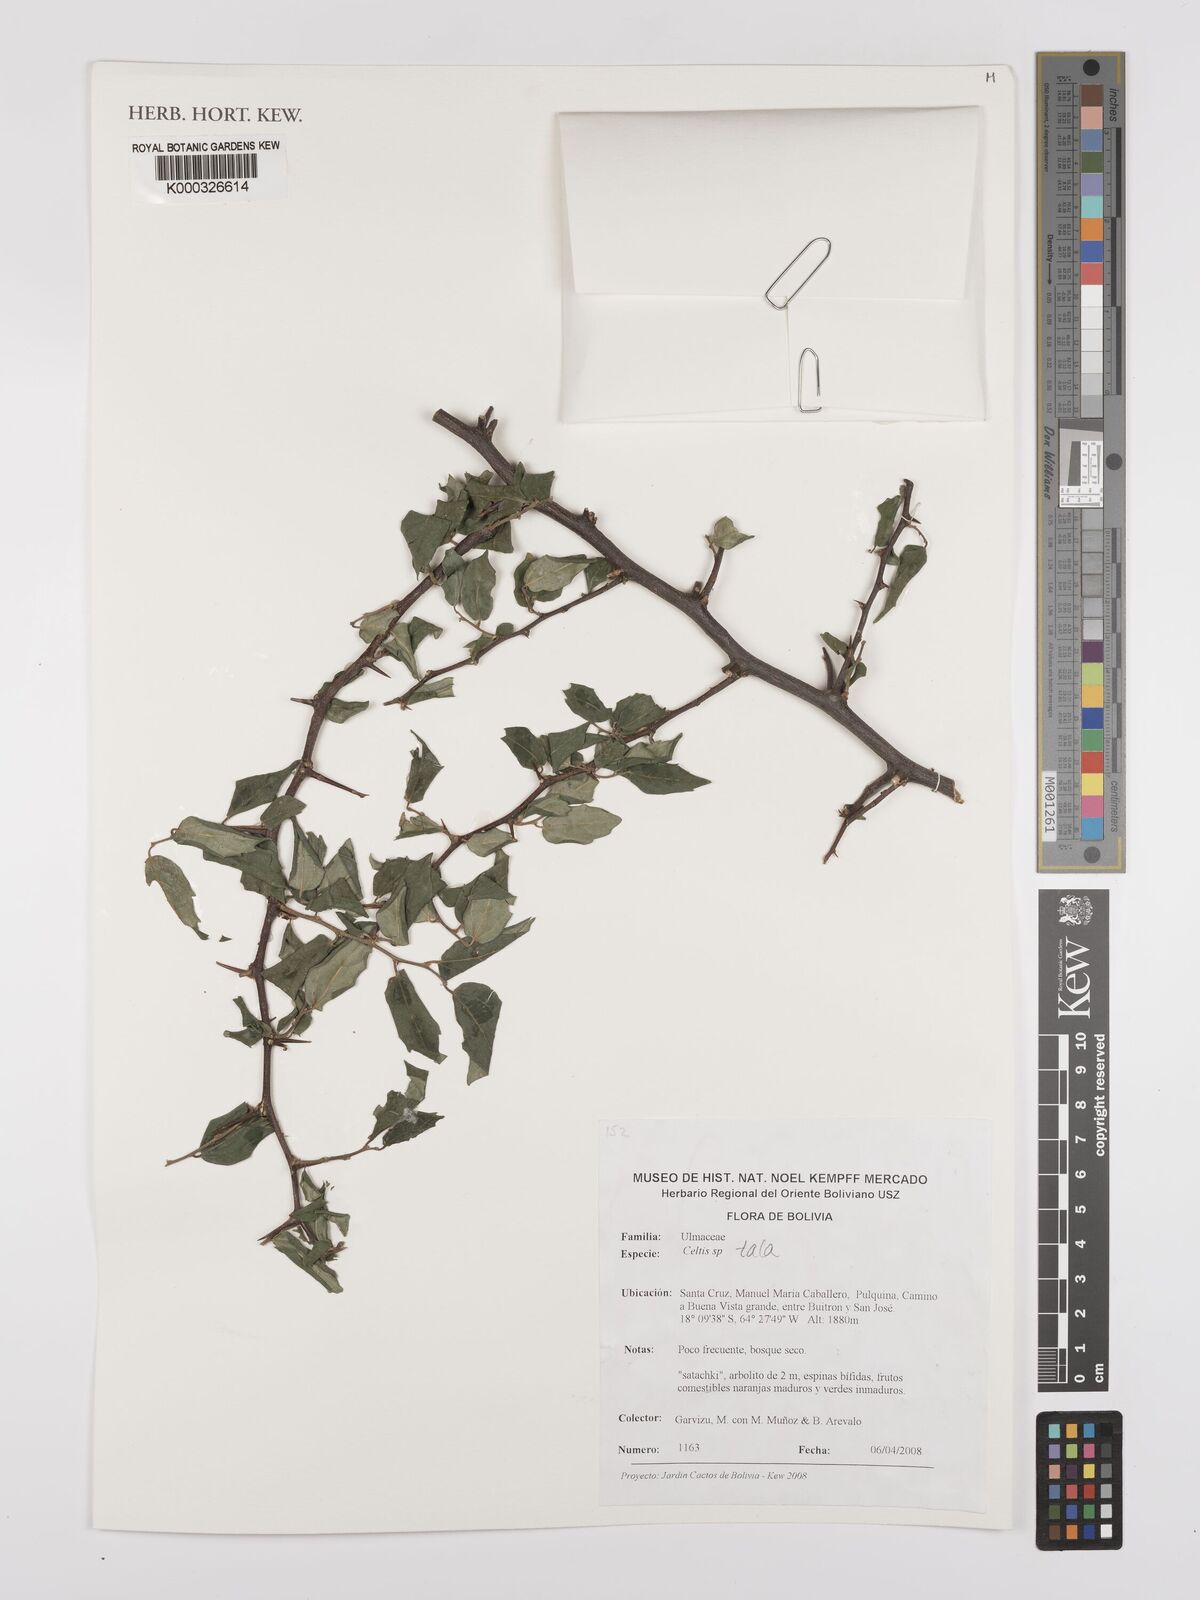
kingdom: Plantae
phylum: Tracheophyta
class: Magnoliopsida
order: Rosales
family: Cannabaceae
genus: Celtis
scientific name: Celtis tala
